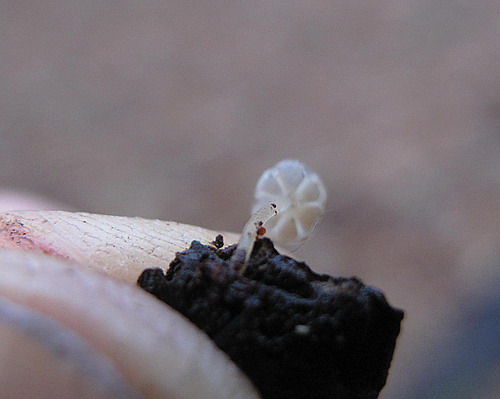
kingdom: Fungi
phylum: Basidiomycota
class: Agaricomycetes
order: Agaricales
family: Porotheleaceae
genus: Phloeomana
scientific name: Phloeomana speirea
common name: kvist-huesvamp
